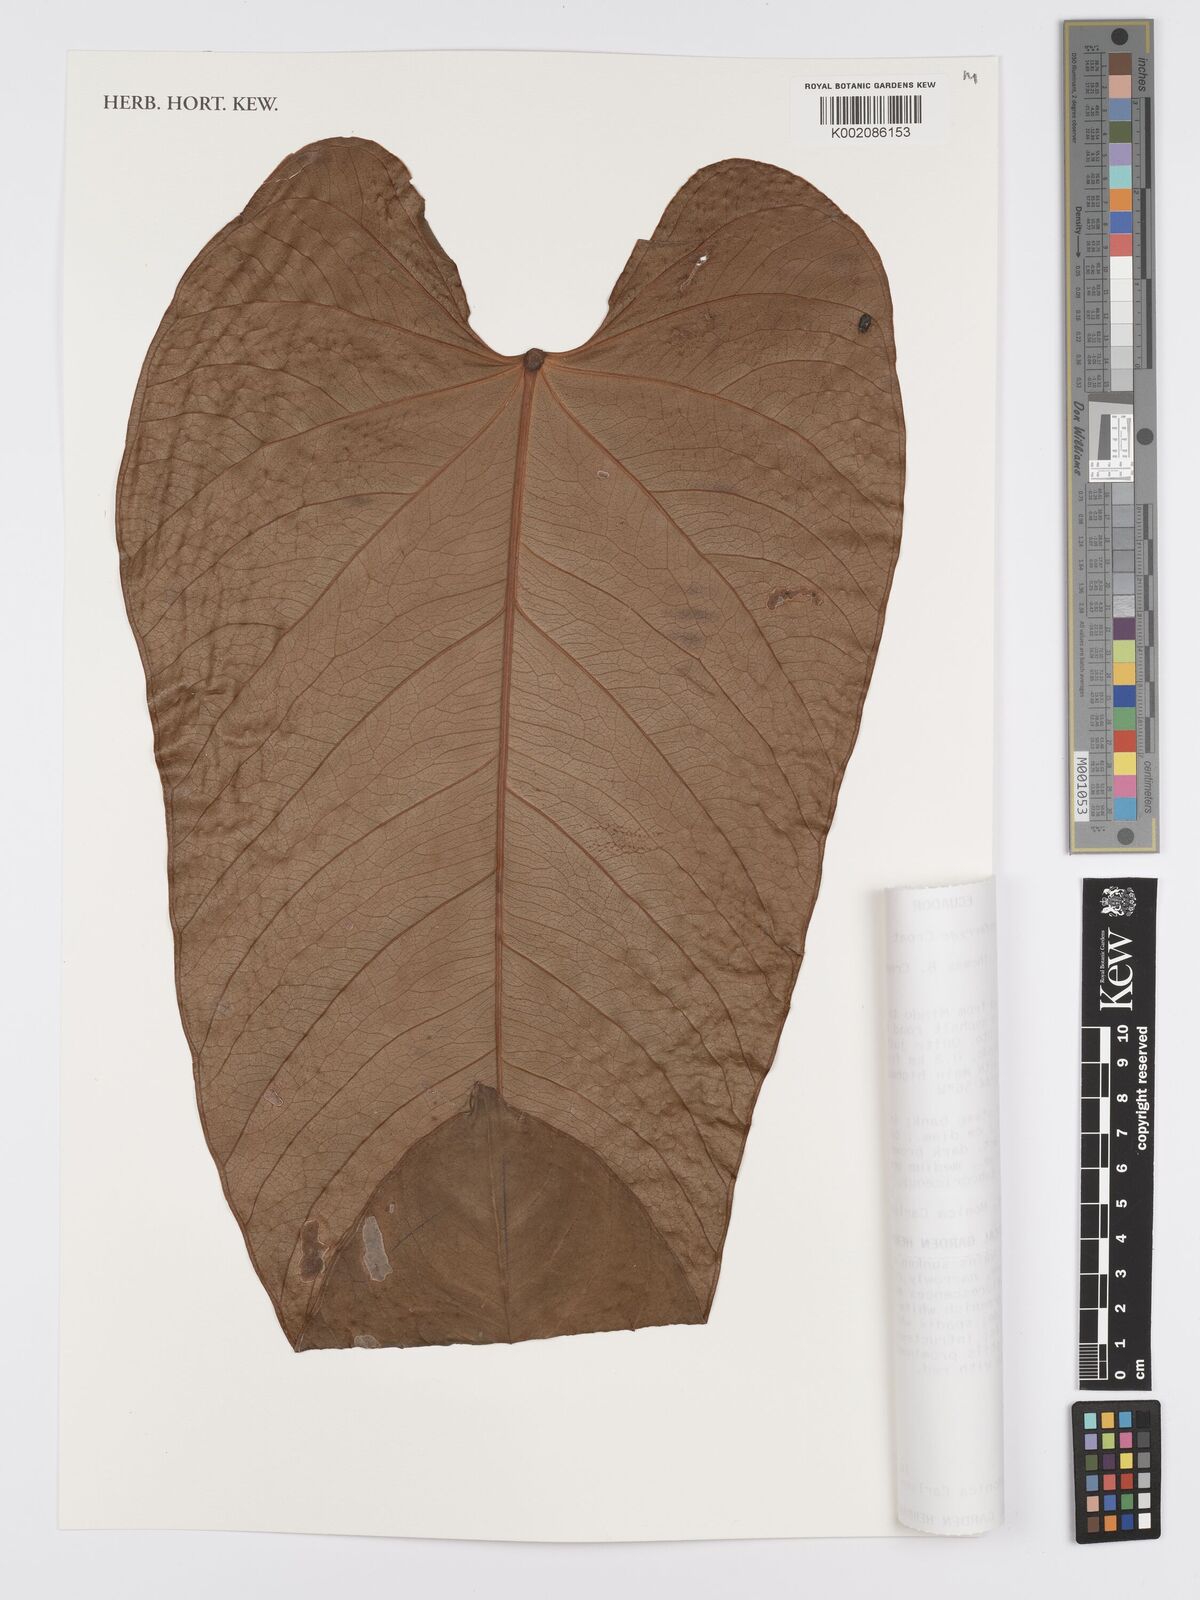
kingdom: Plantae
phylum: Tracheophyta
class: Liliopsida
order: Alismatales
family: Araceae
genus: Anthurium
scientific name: Anthurium genferryae
